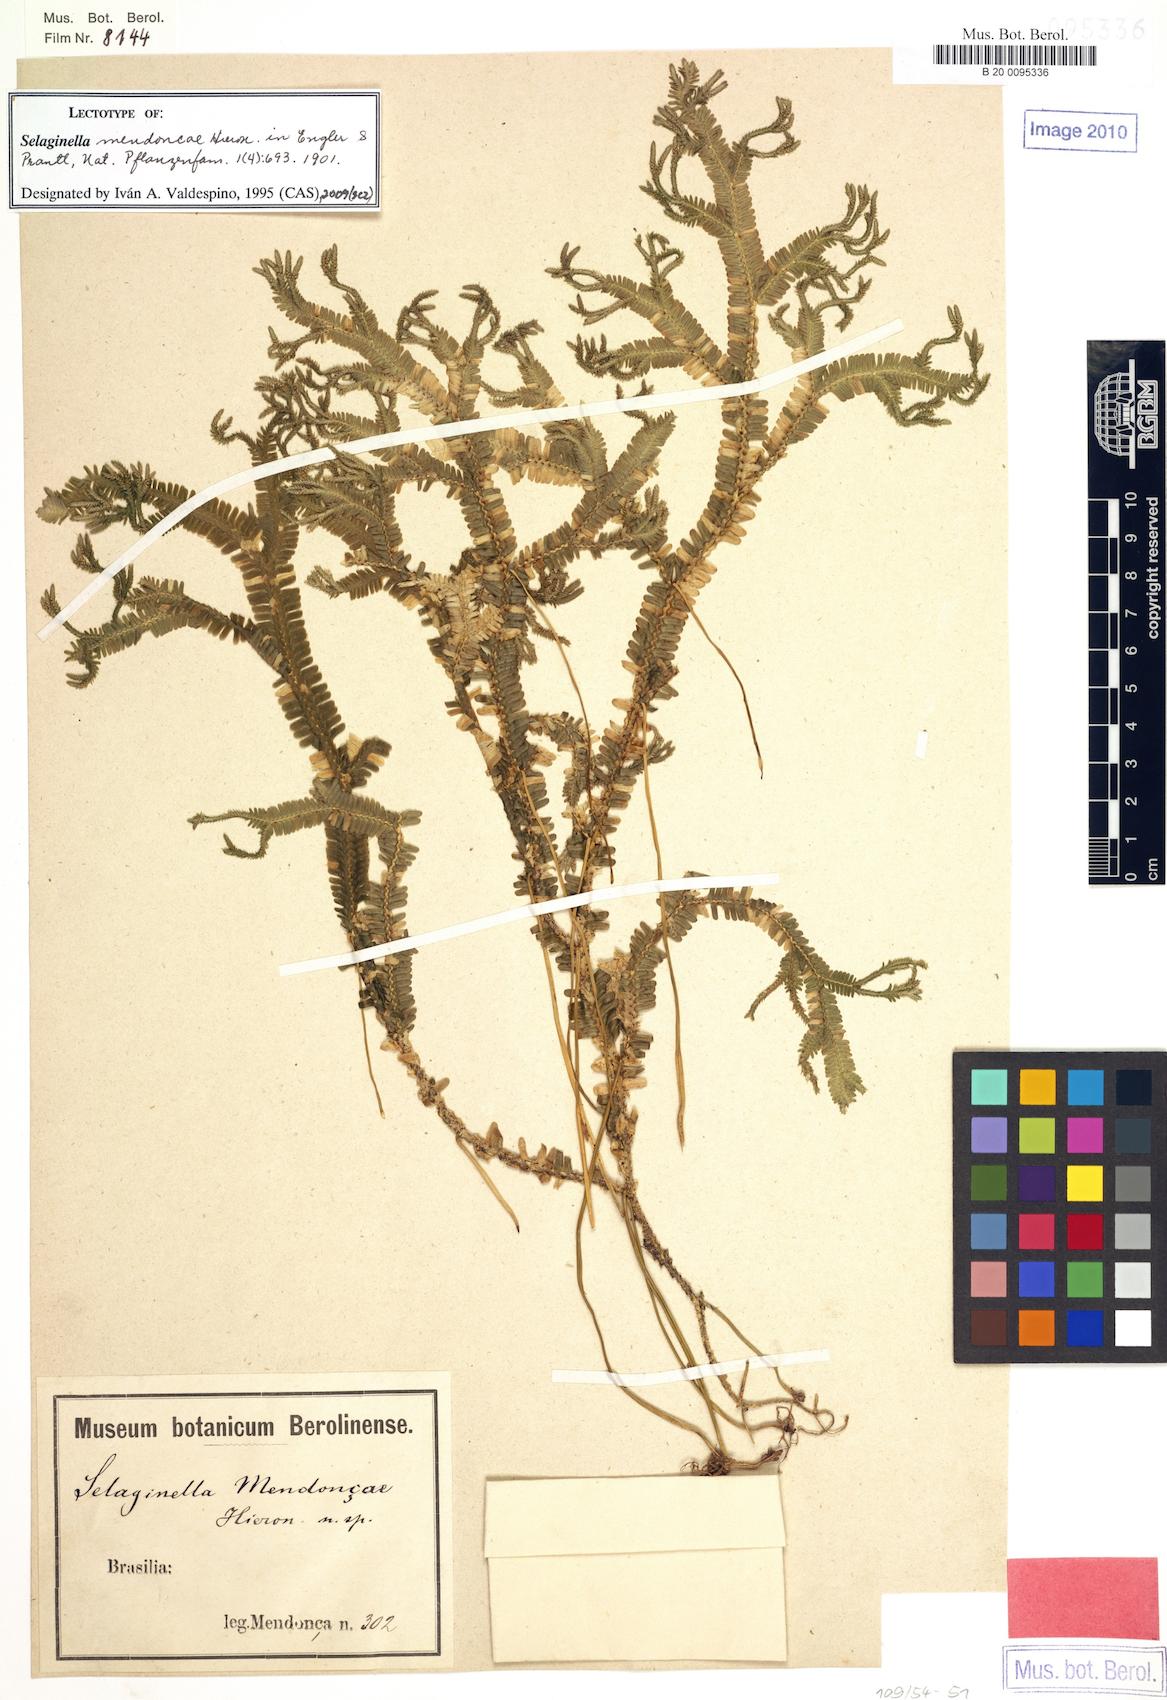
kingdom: Plantae
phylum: Tracheophyta
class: Lycopodiopsida
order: Selaginellales
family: Selaginellaceae
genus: Selaginella
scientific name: Selaginella mendoncae
